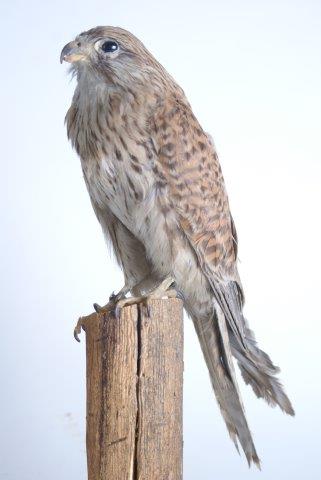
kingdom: Animalia
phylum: Chordata
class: Aves
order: Falconiformes
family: Falconidae
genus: Falco
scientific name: Falco tinnunculus
